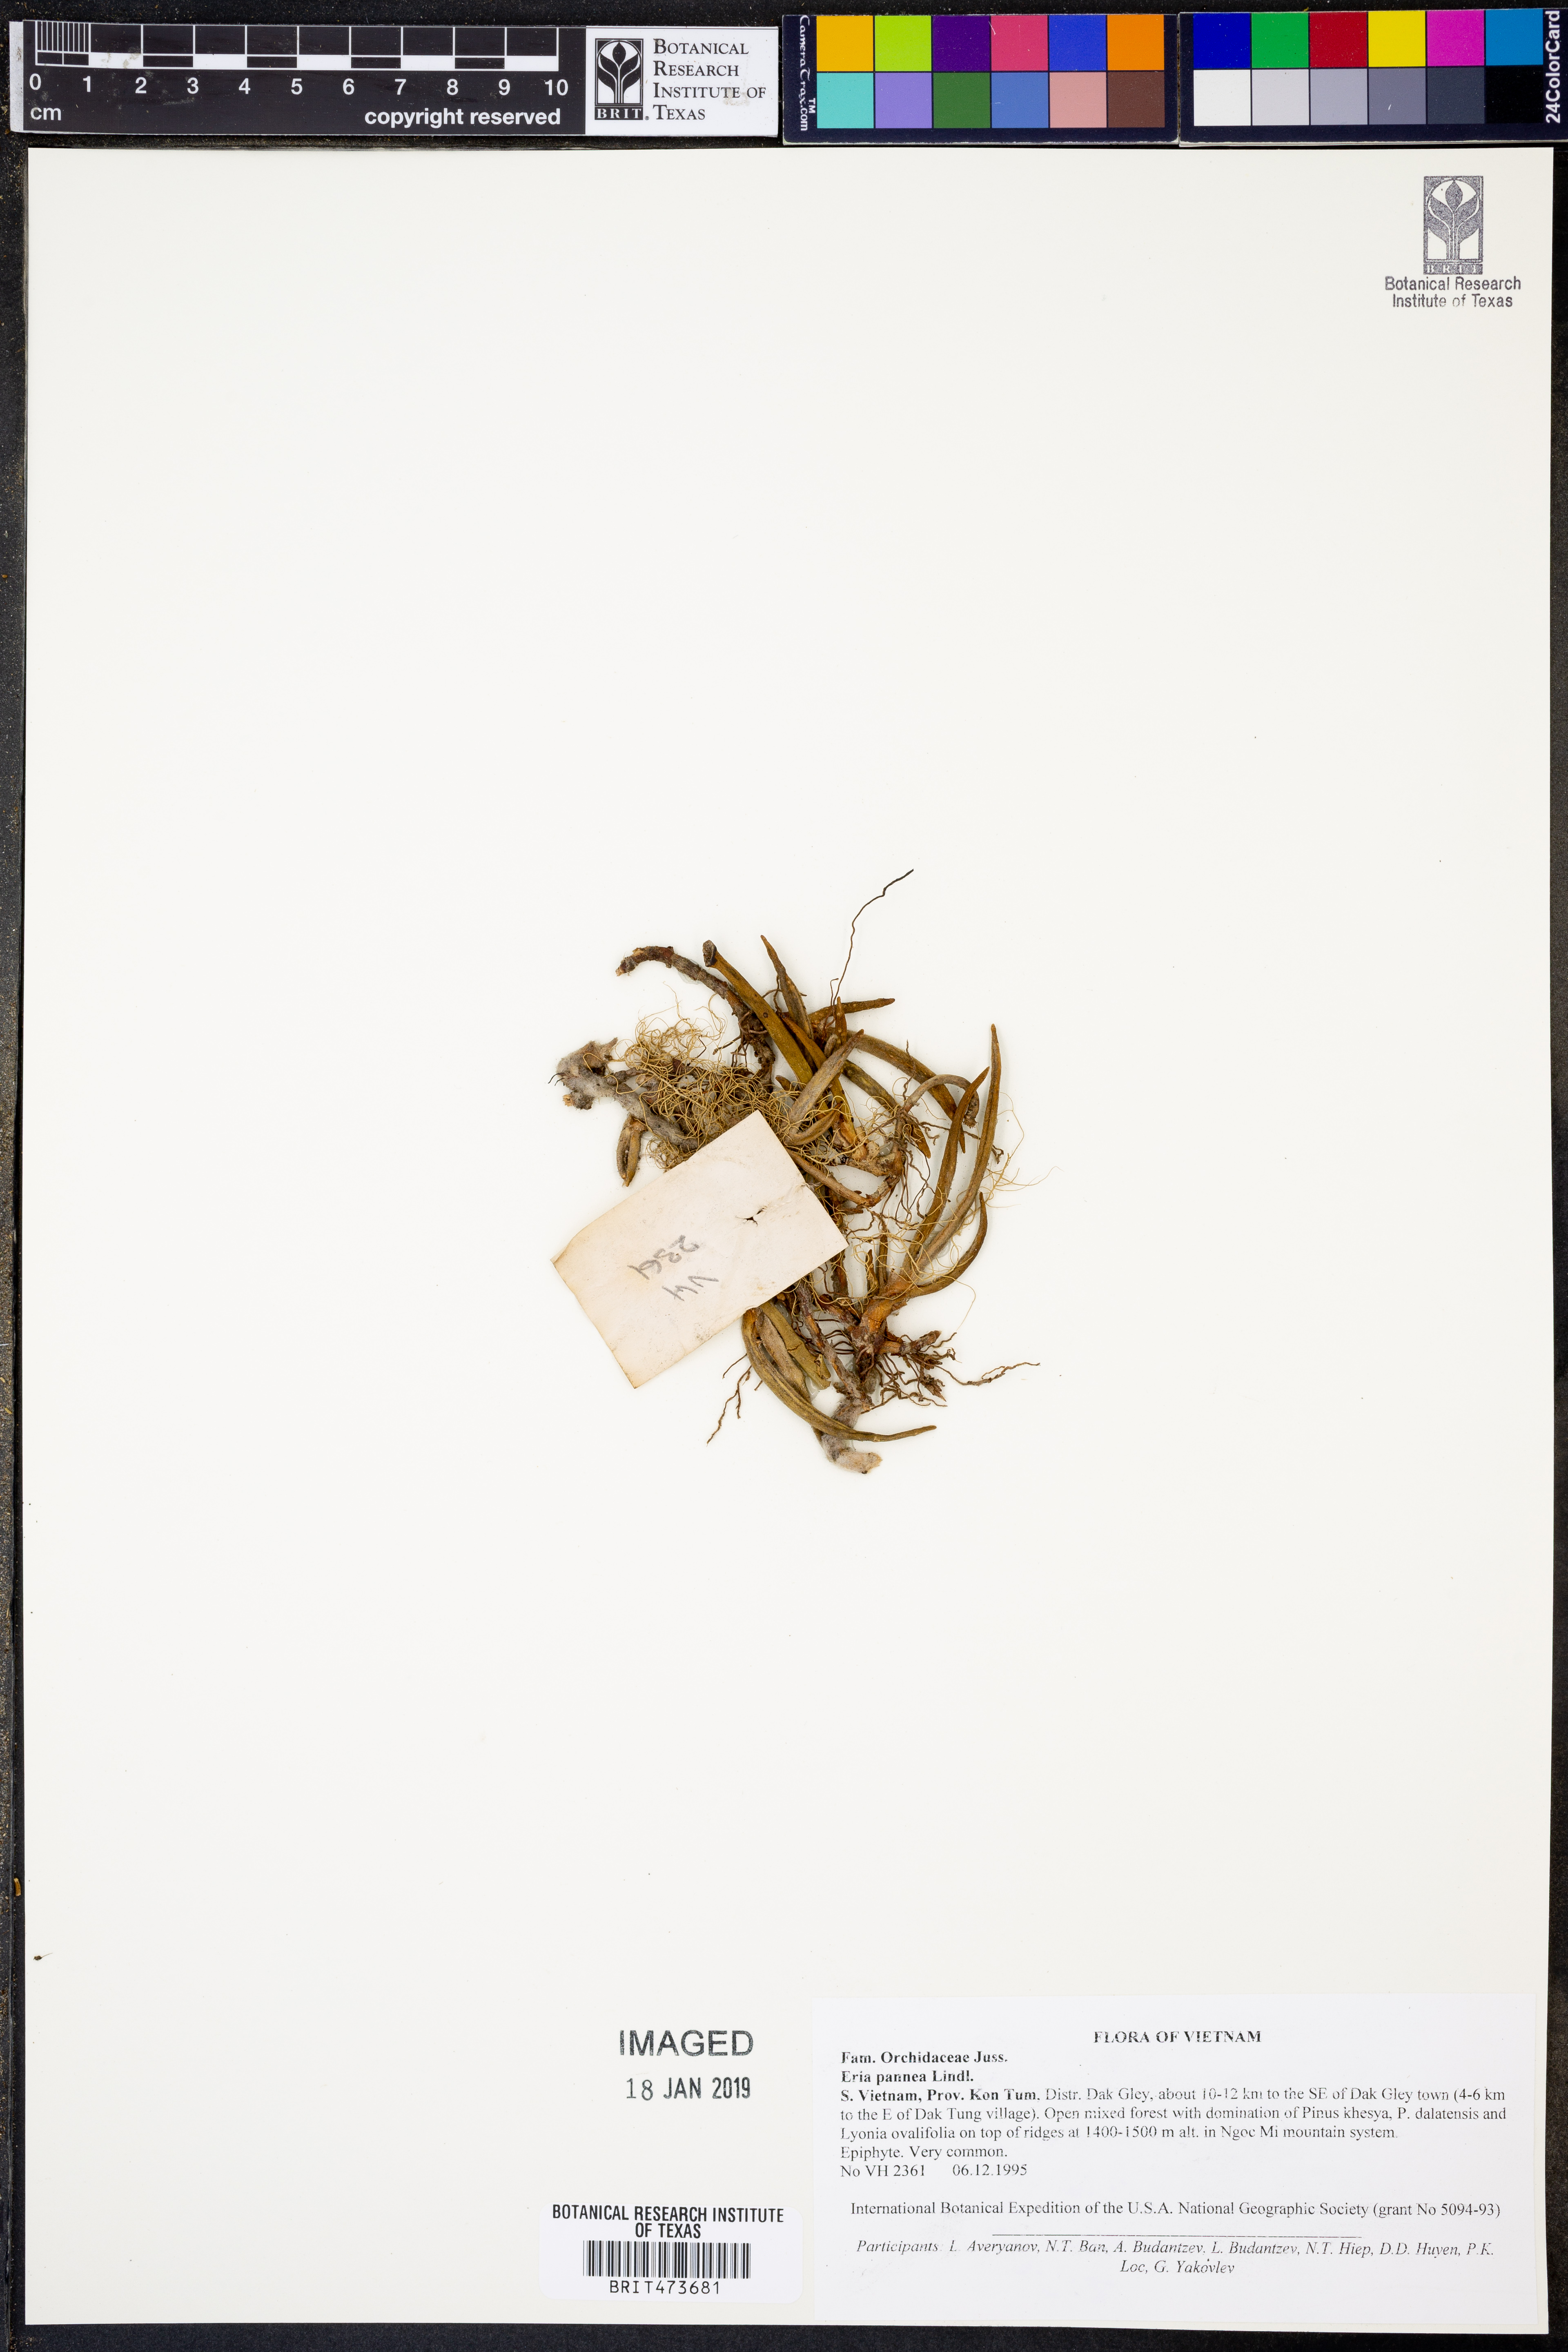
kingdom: Plantae
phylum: Tracheophyta
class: Liliopsida
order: Asparagales
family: Orchidaceae
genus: Strongyleria
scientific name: Strongyleria pannea
